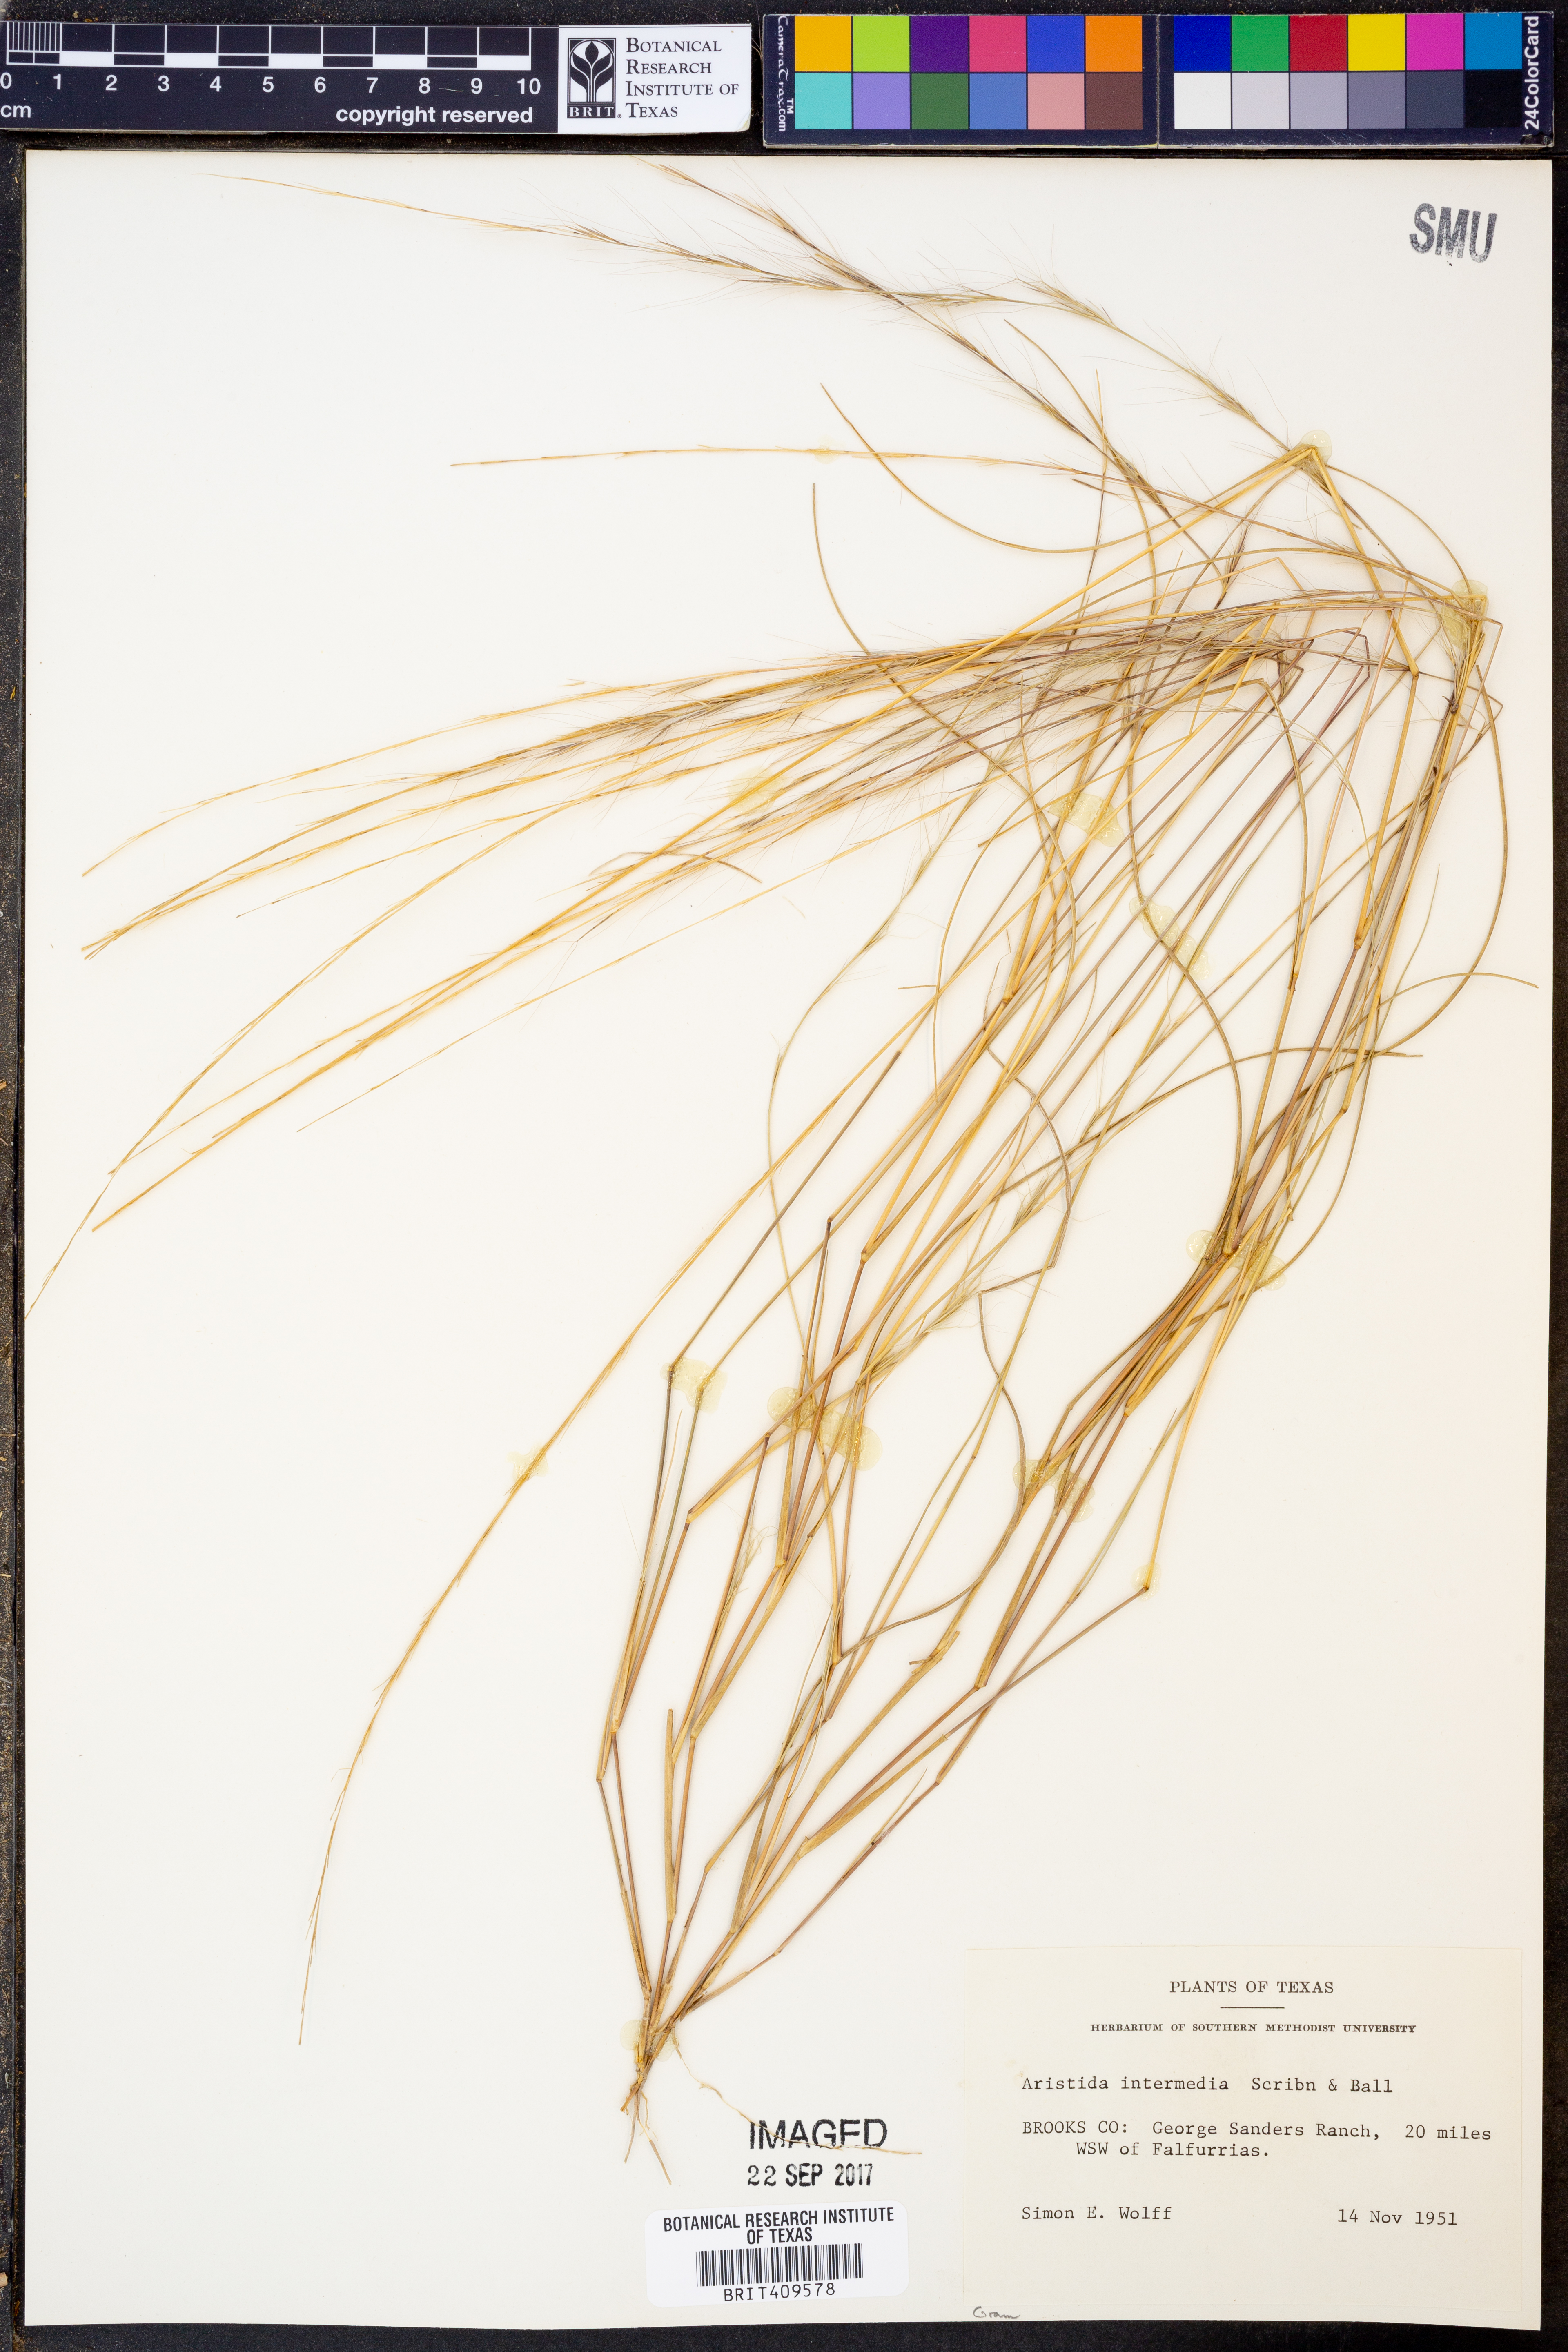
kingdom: Plantae
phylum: Tracheophyta
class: Liliopsida
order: Poales
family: Poaceae
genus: Aristida
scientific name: Aristida longespica
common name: Long-spiked triple-awned grass
